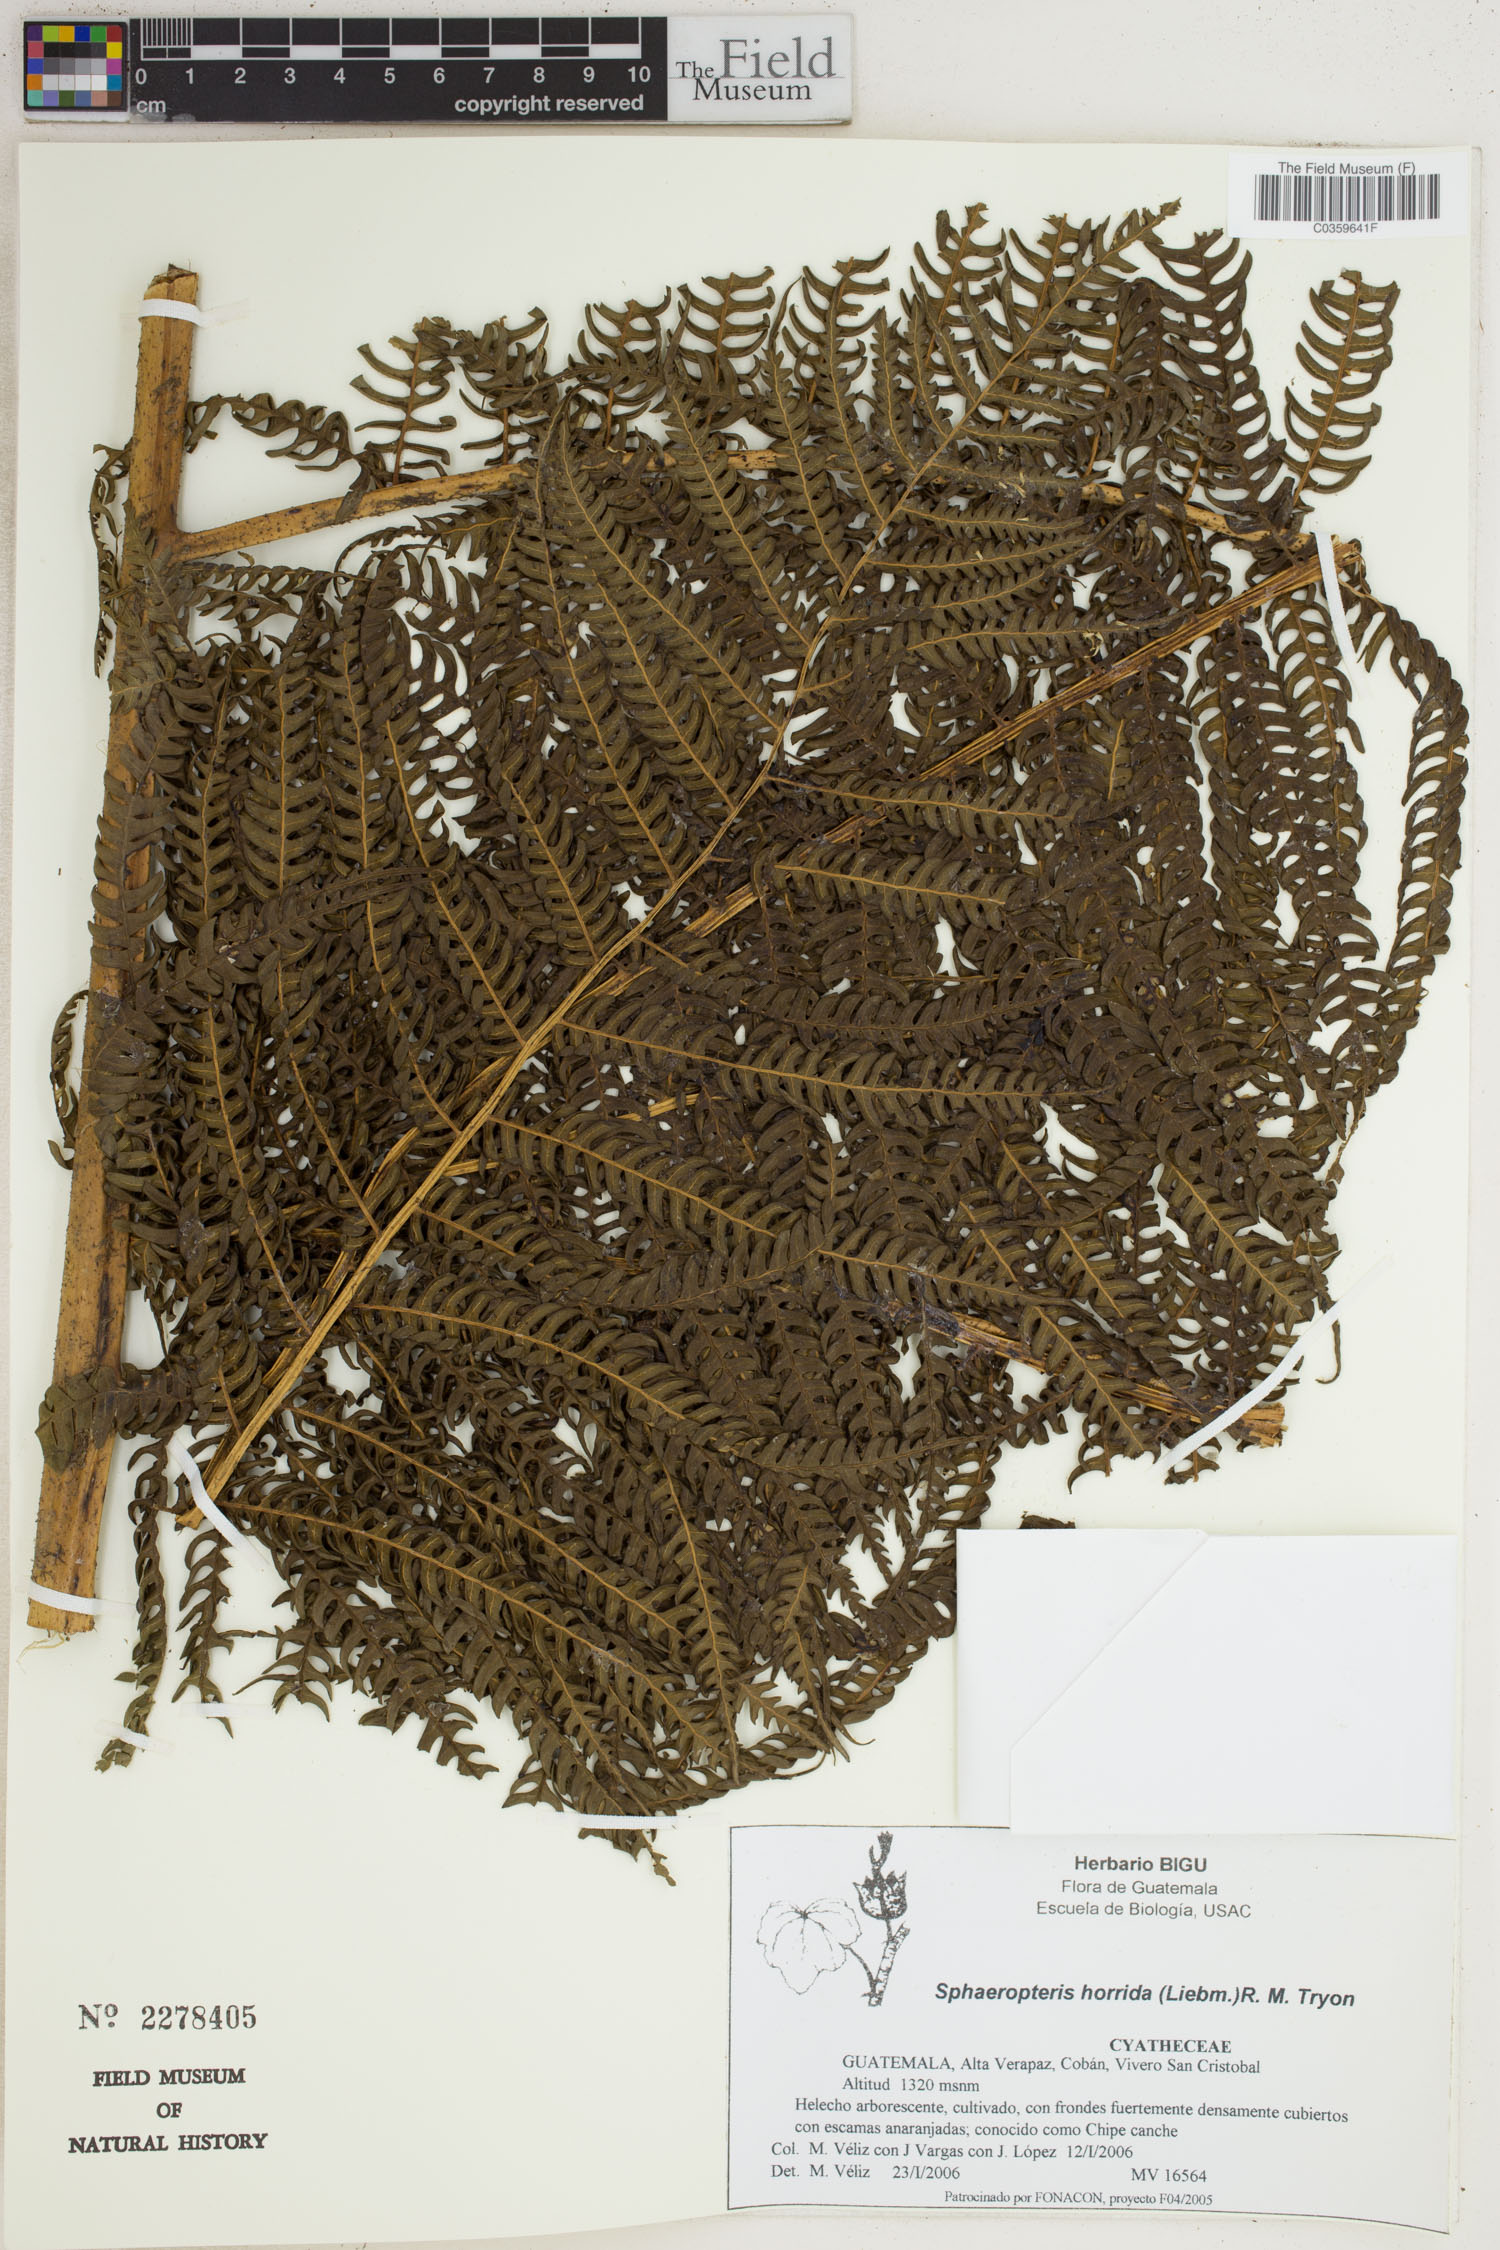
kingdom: Plantae
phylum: Tracheophyta
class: Polypodiopsida
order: Cyatheales
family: Cyatheaceae
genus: Sphaeropteris
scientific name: Sphaeropteris horrida
